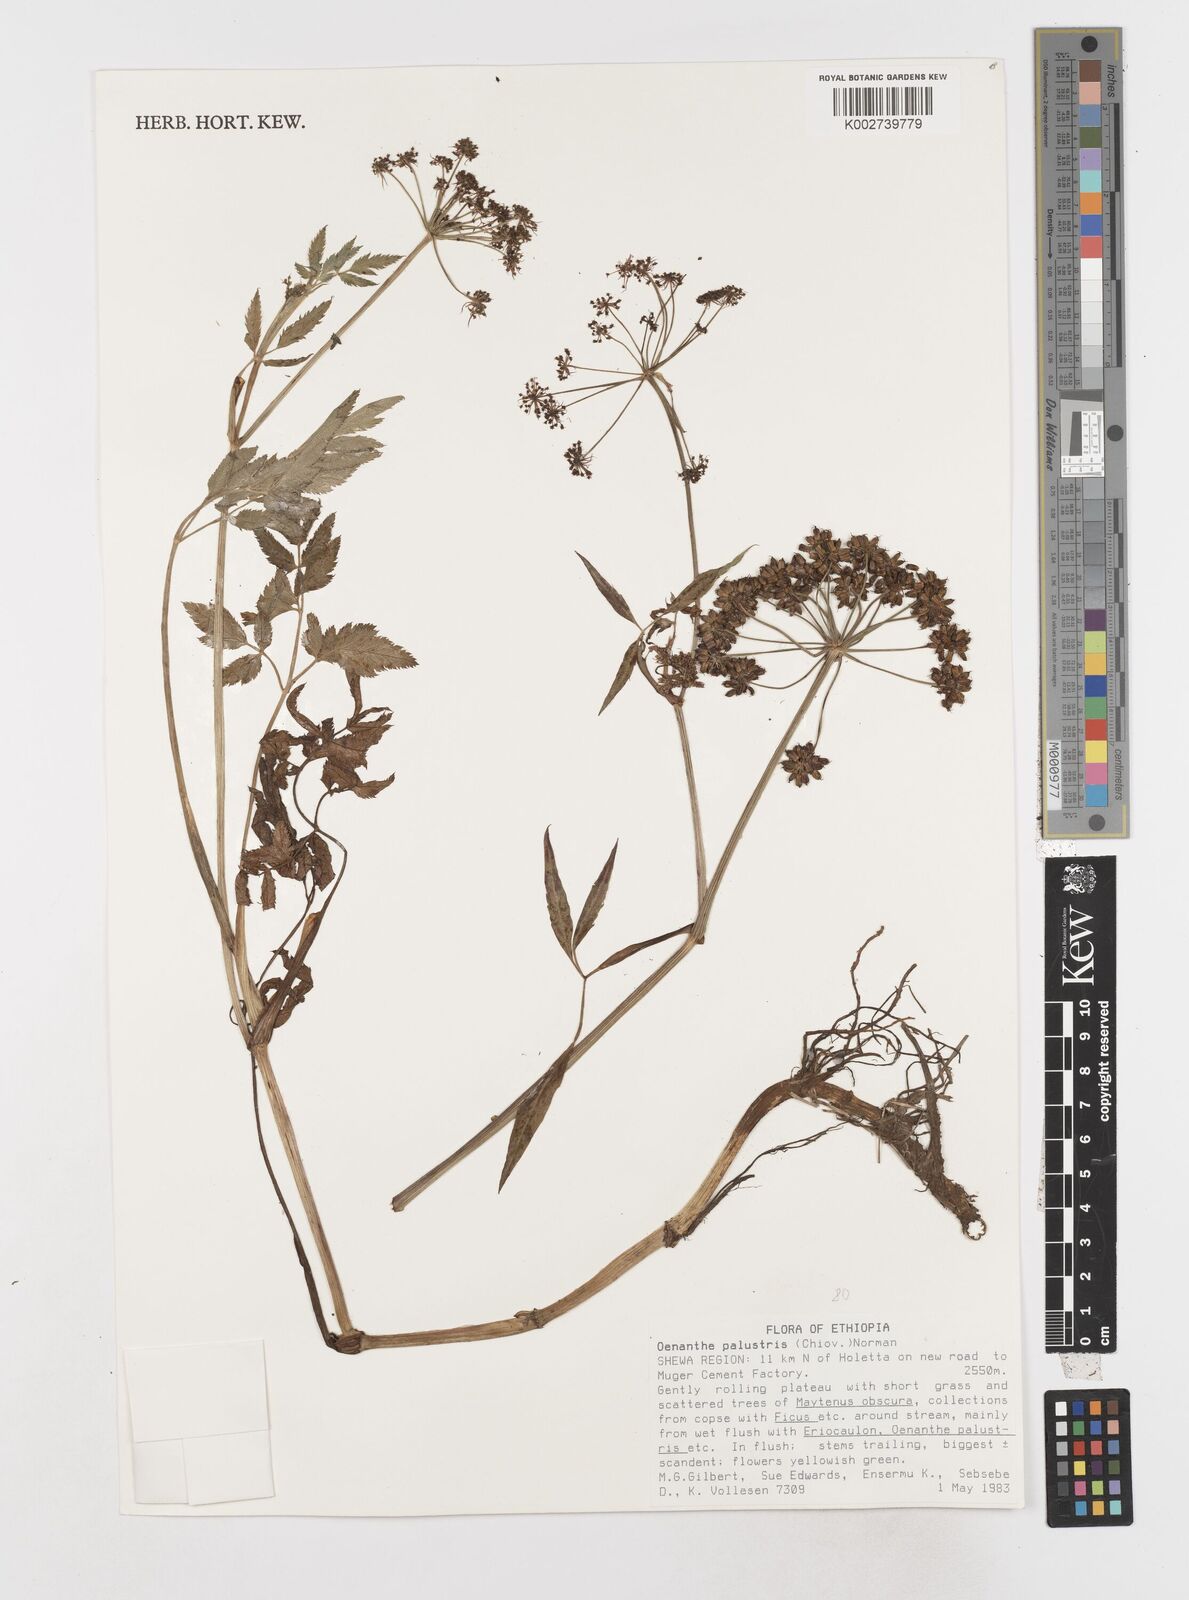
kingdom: Plantae
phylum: Tracheophyta
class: Magnoliopsida
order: Apiales
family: Apiaceae
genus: Oenanthe
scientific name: Oenanthe palustris
